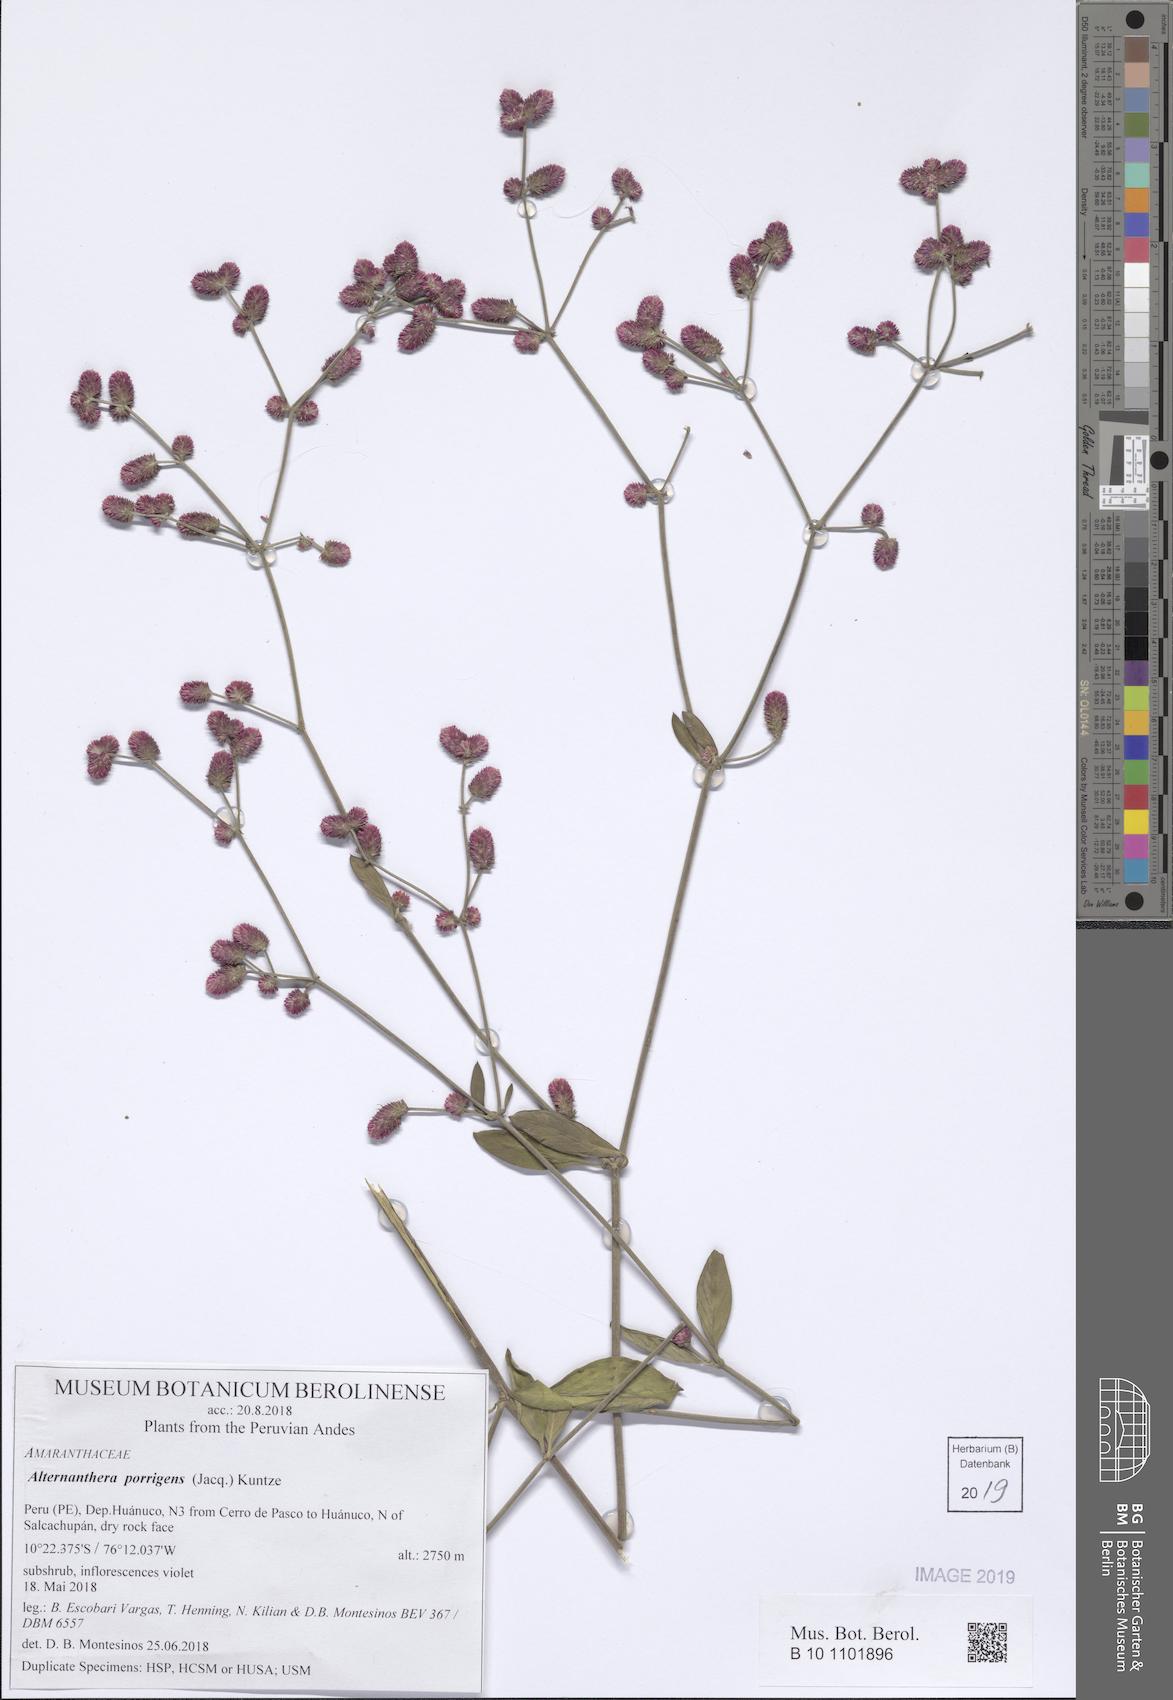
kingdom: Plantae
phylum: Tracheophyta
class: Magnoliopsida
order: Caryophyllales
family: Amaranthaceae
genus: Alternanthera
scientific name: Alternanthera porrigens
